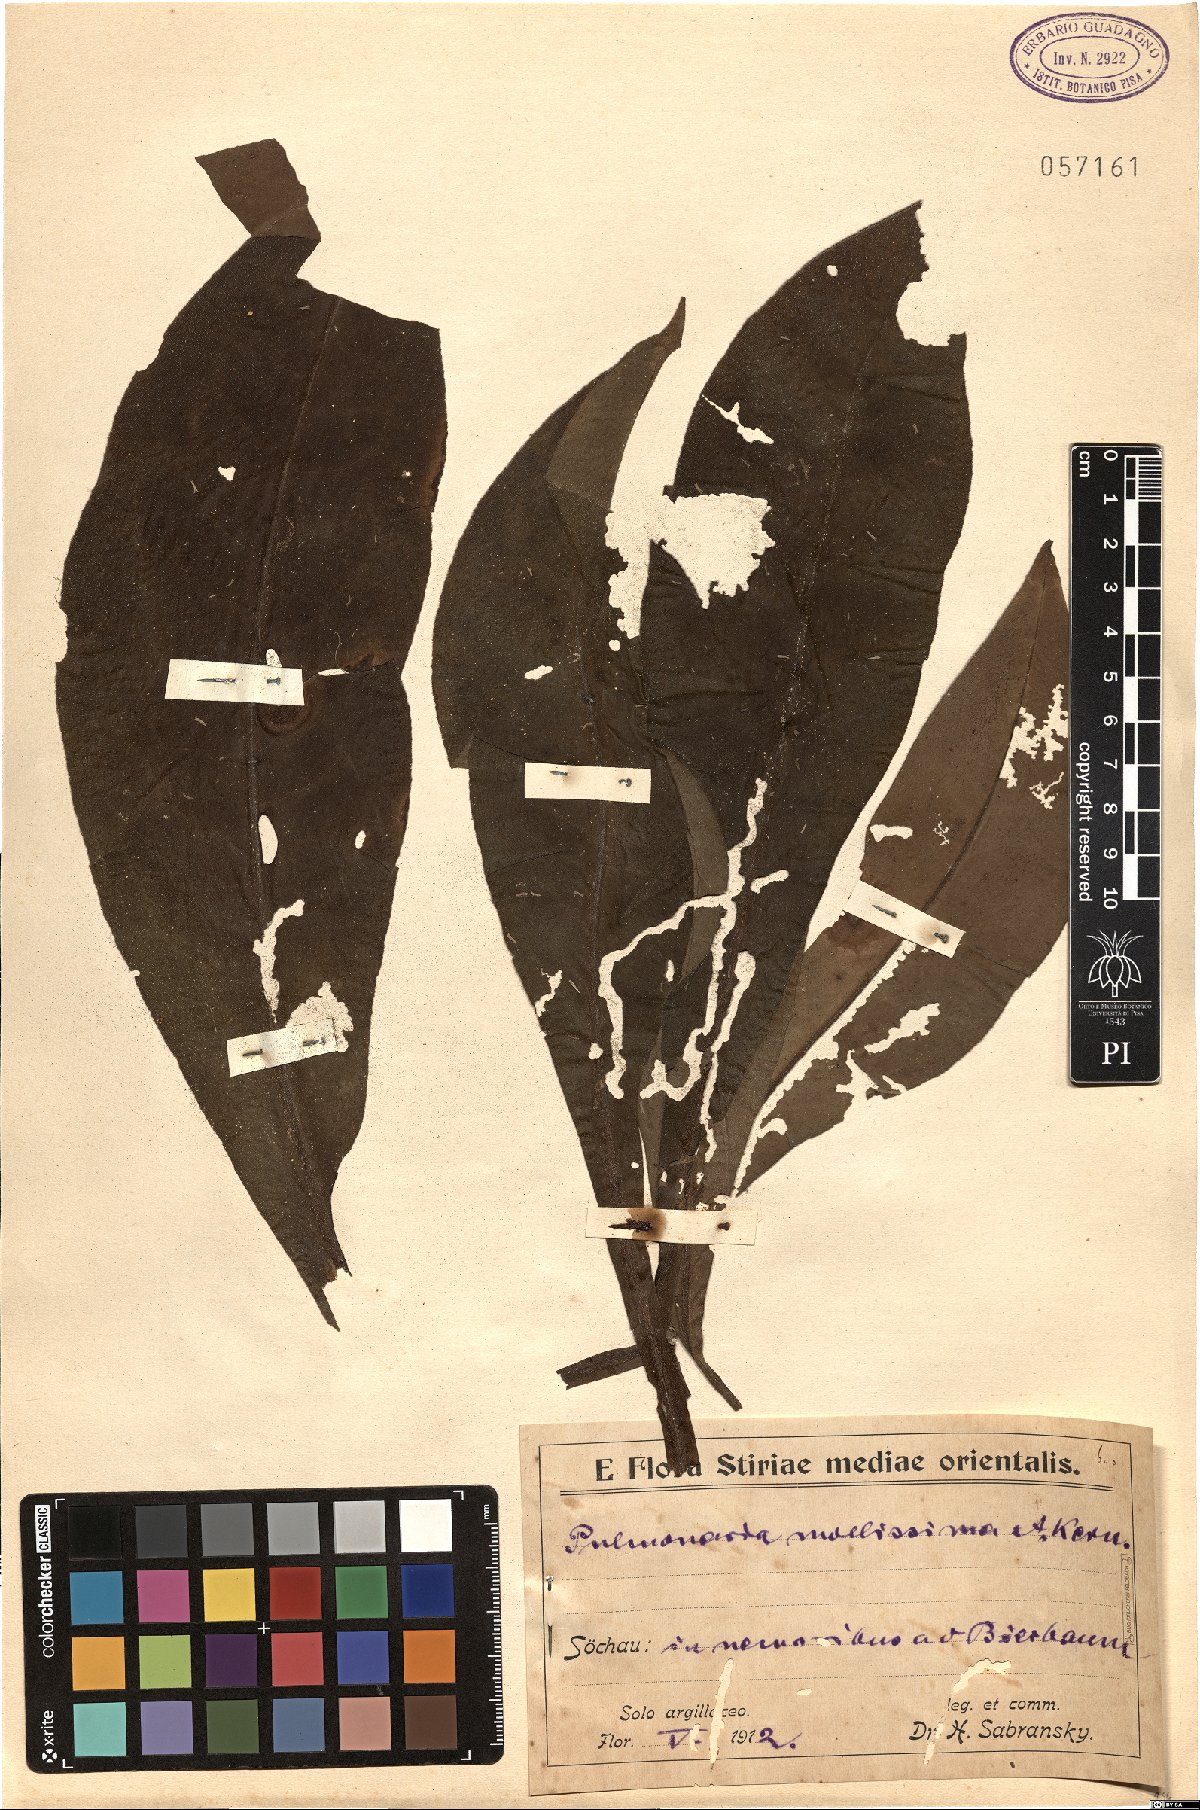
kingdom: Plantae
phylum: Tracheophyta
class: Magnoliopsida
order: Boraginales
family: Boraginaceae
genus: Pulmonaria
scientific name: Pulmonaria mollis
